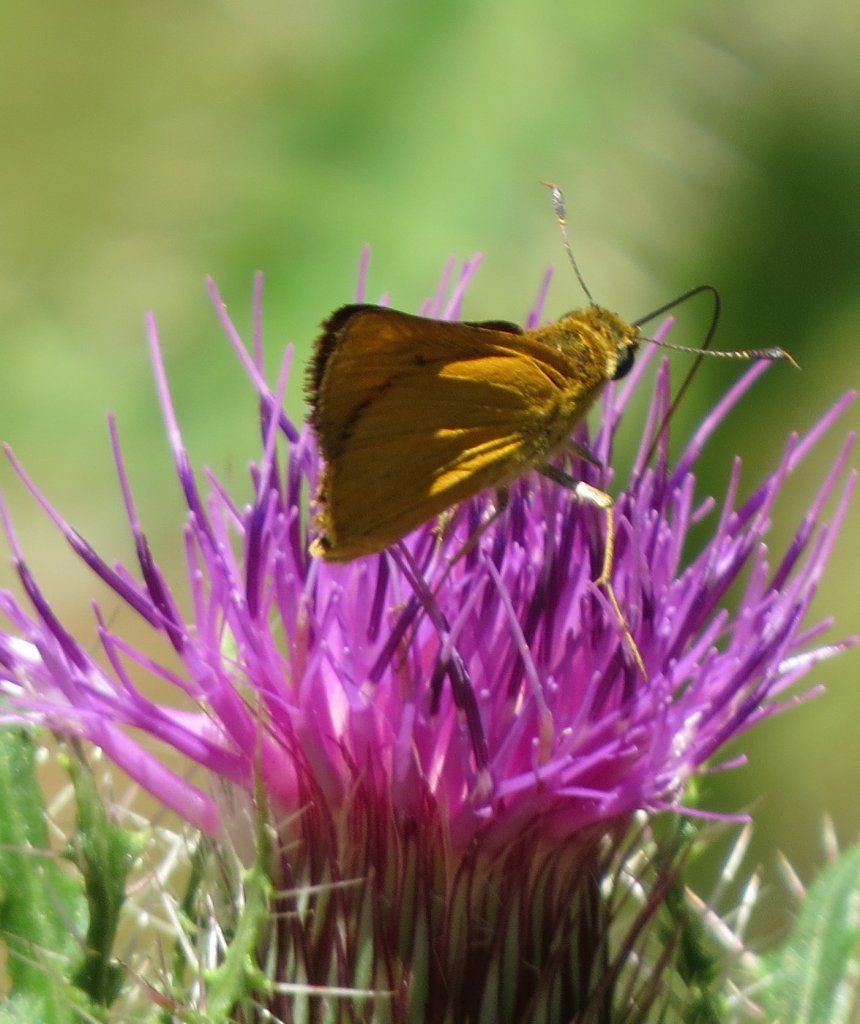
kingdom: Animalia
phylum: Arthropoda
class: Insecta
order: Lepidoptera
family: Hesperiidae
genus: Atrytone
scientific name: Atrytone delaware
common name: Delaware Skipper
